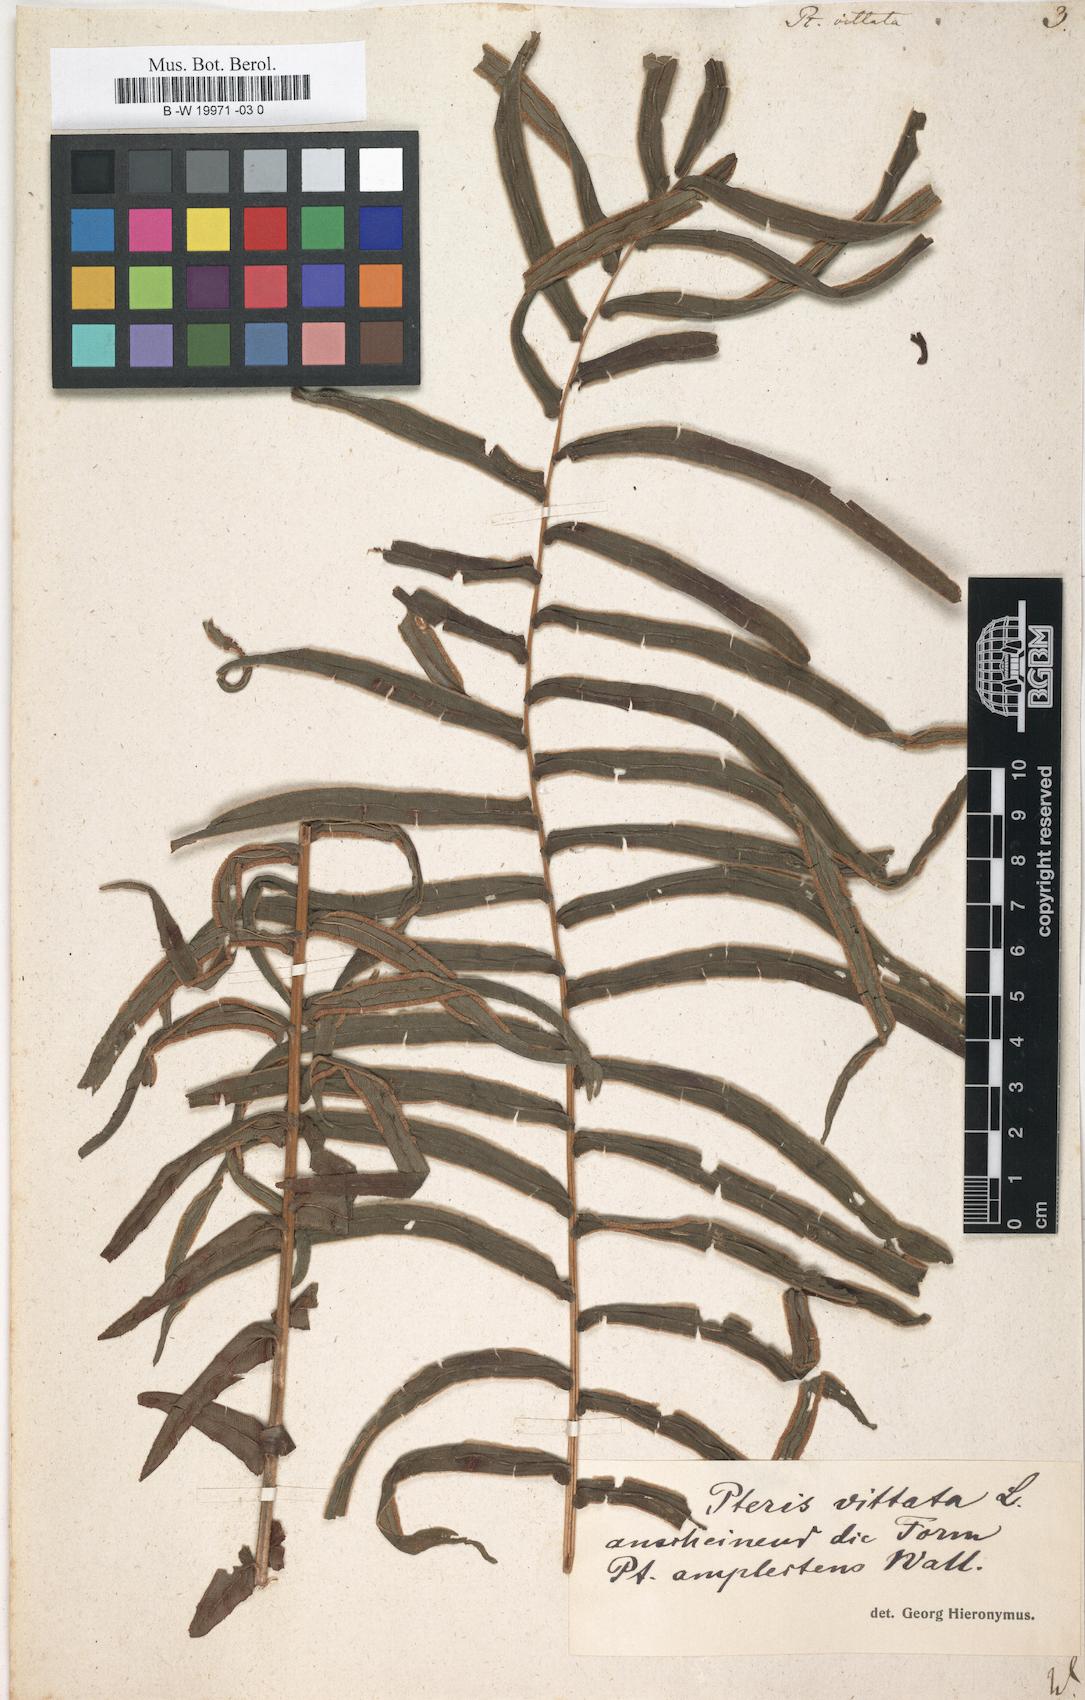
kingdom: Plantae
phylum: Tracheophyta
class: Polypodiopsida
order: Polypodiales
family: Pteridaceae
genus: Pteris
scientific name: Pteris vittata
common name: Ladder brake
